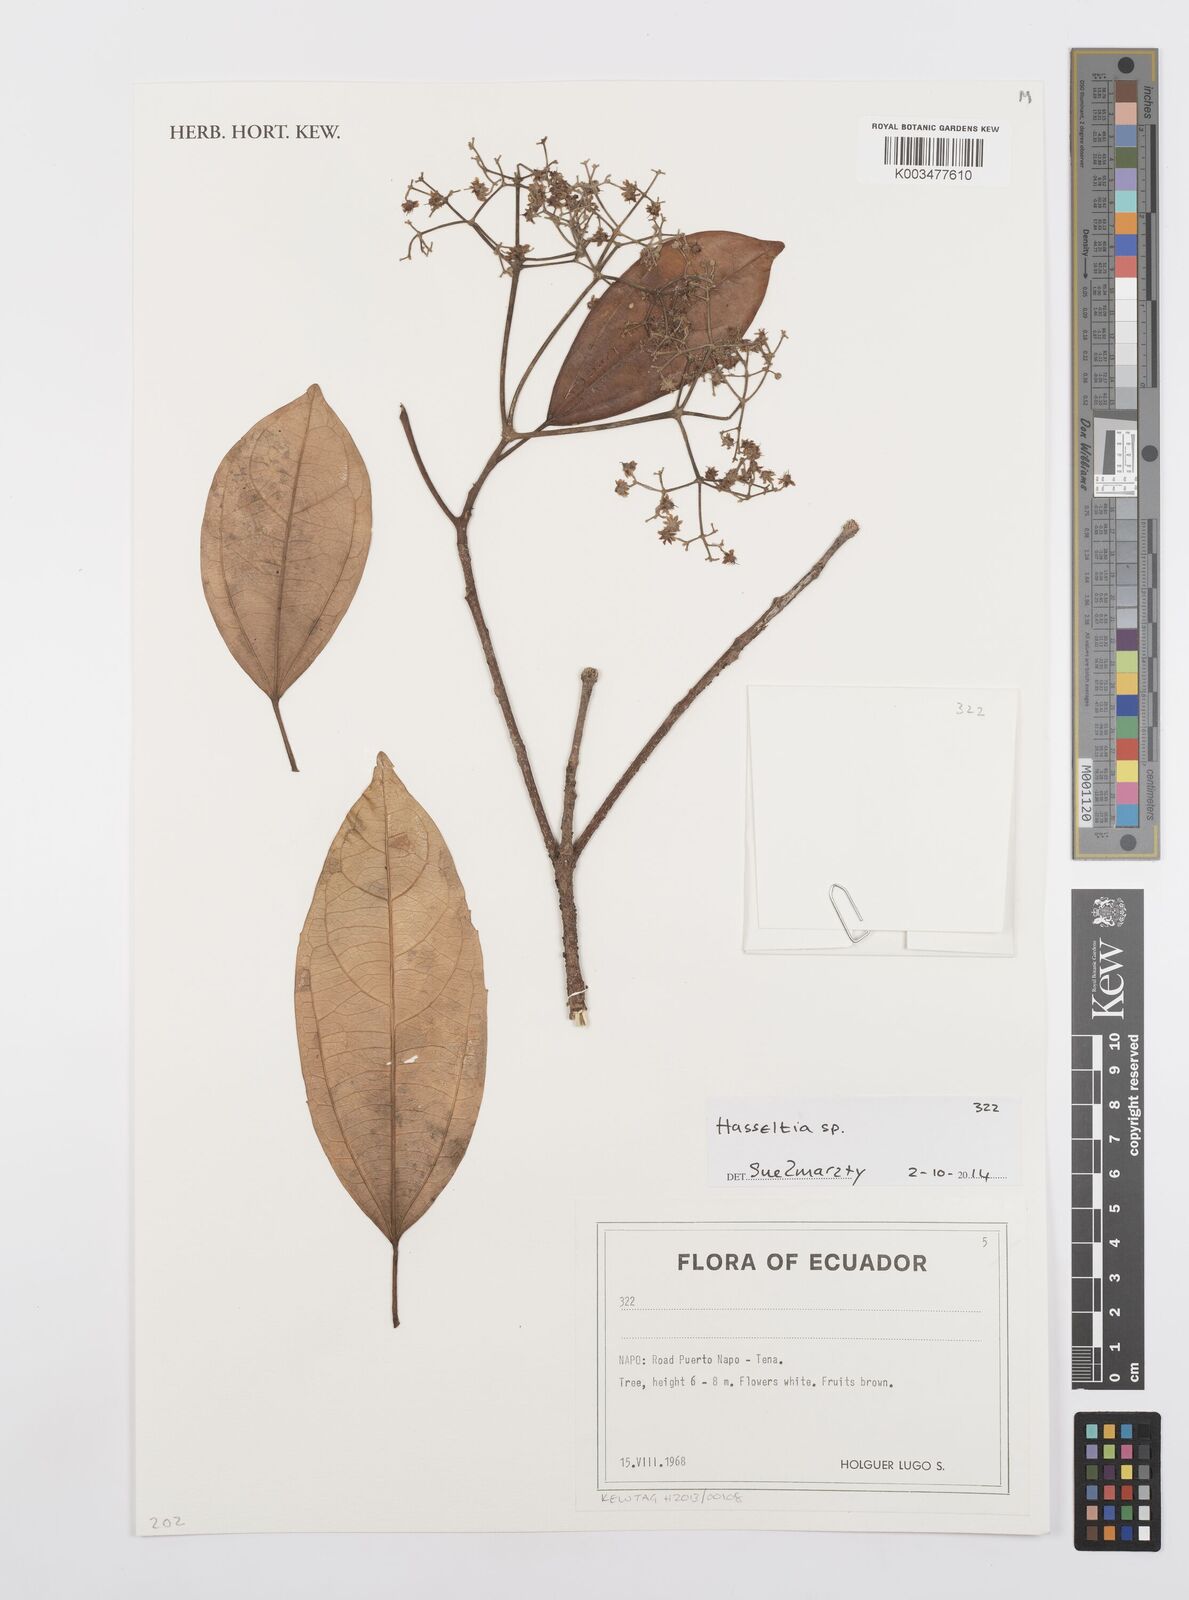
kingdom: Plantae
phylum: Tracheophyta
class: Magnoliopsida
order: Malpighiales
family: Salicaceae
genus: Hasseltia
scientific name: Hasseltia
